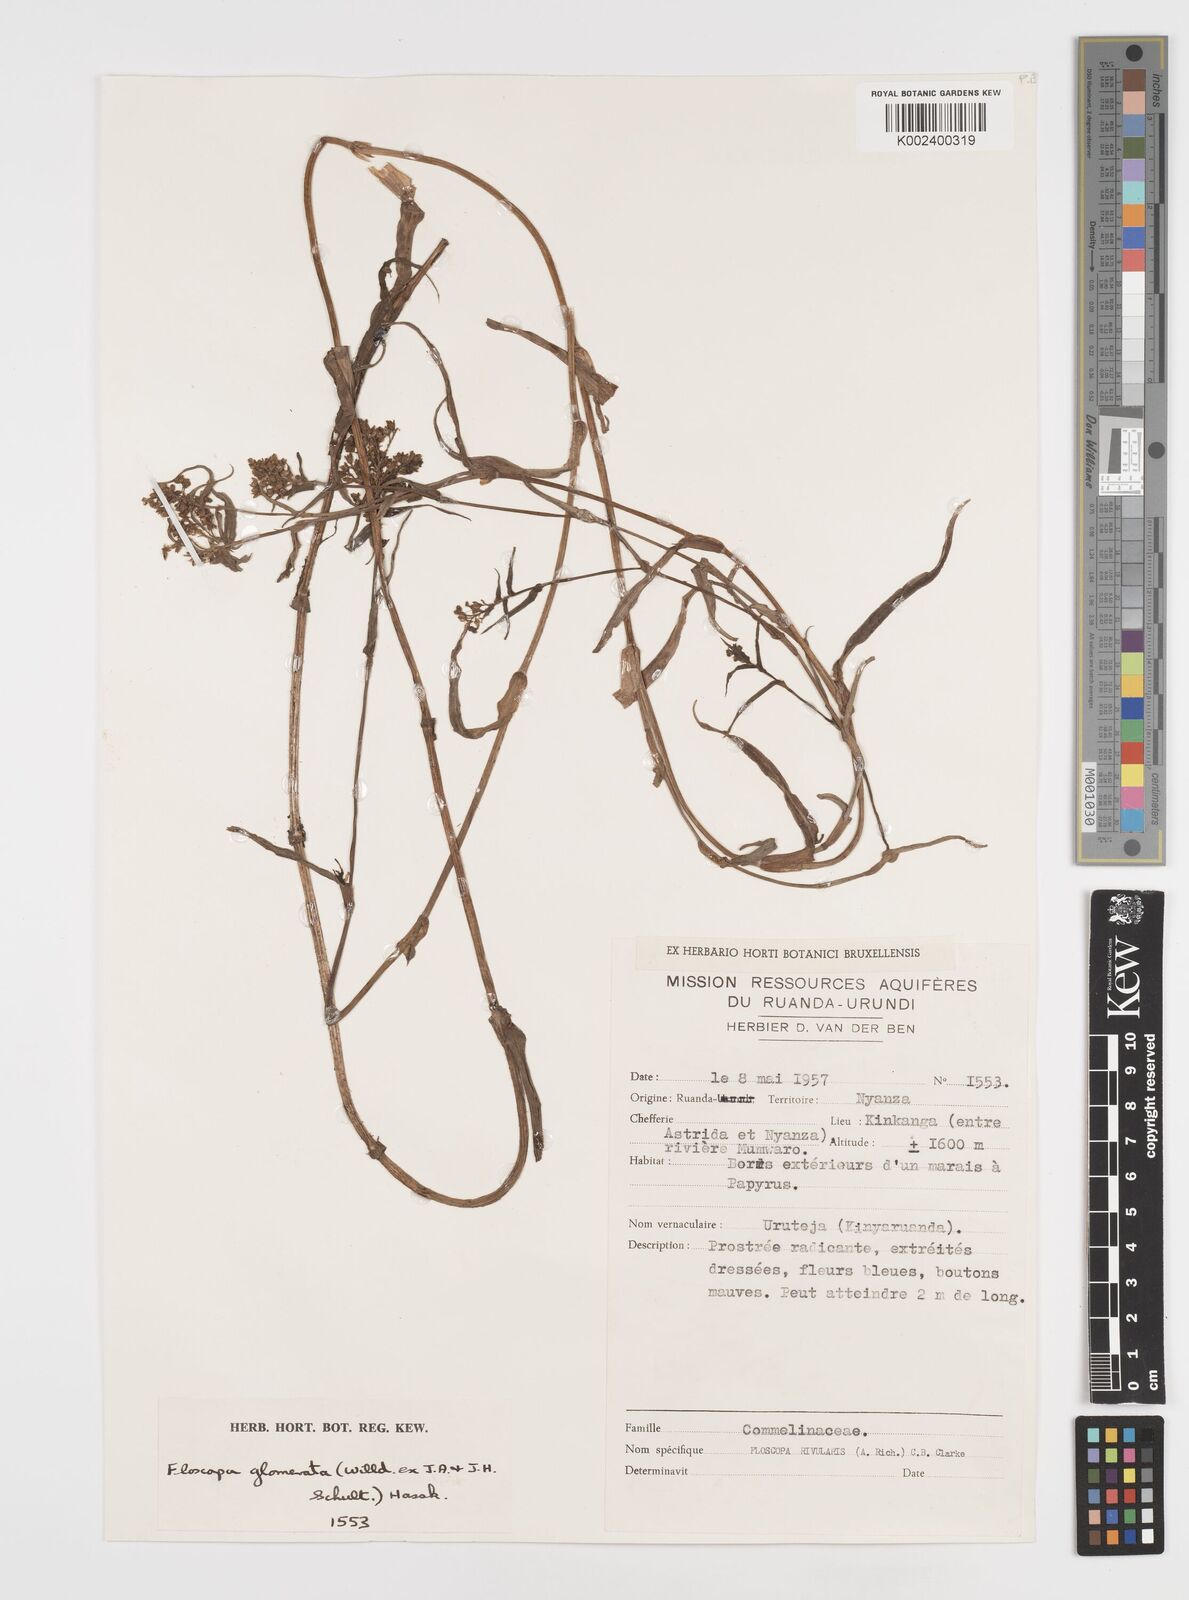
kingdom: Plantae
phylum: Tracheophyta
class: Liliopsida
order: Commelinales
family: Commelinaceae
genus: Floscopa
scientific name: Floscopa glomerata
